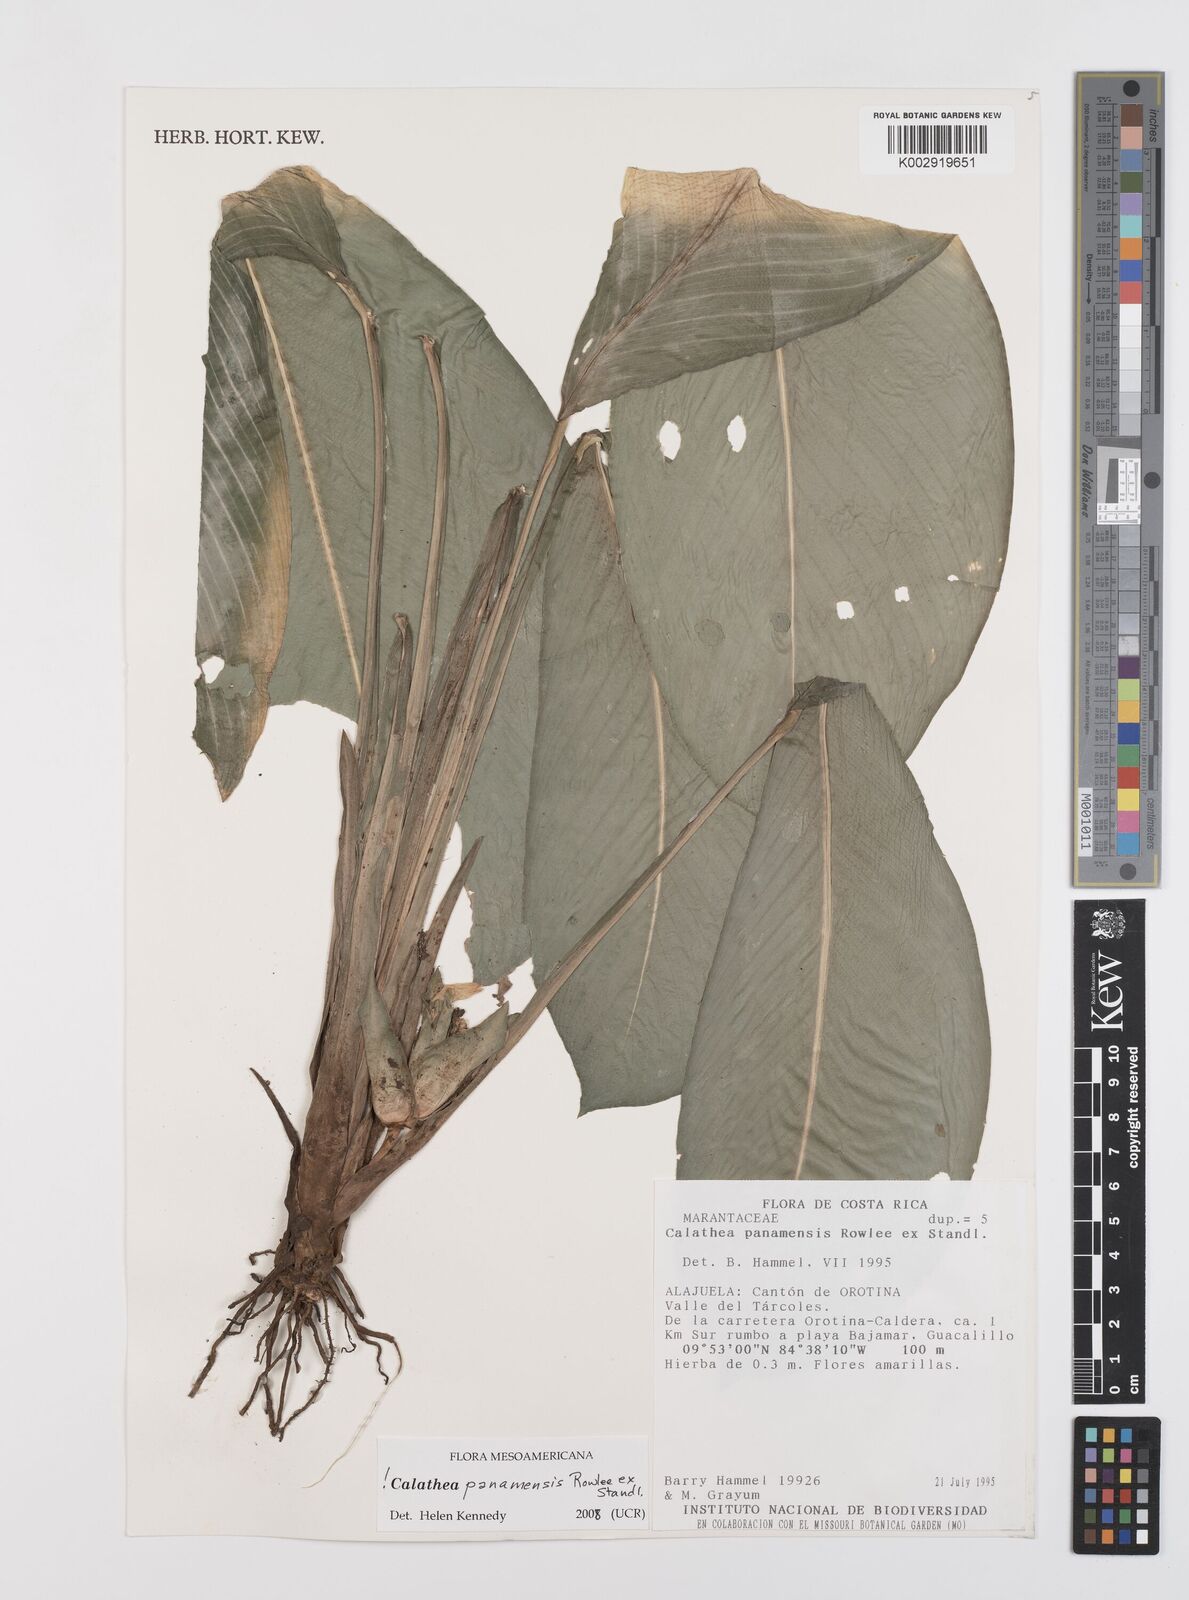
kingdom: Plantae
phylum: Tracheophyta
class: Liliopsida
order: Zingiberales
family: Marantaceae
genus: Goeppertia
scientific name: Goeppertia panamensis
